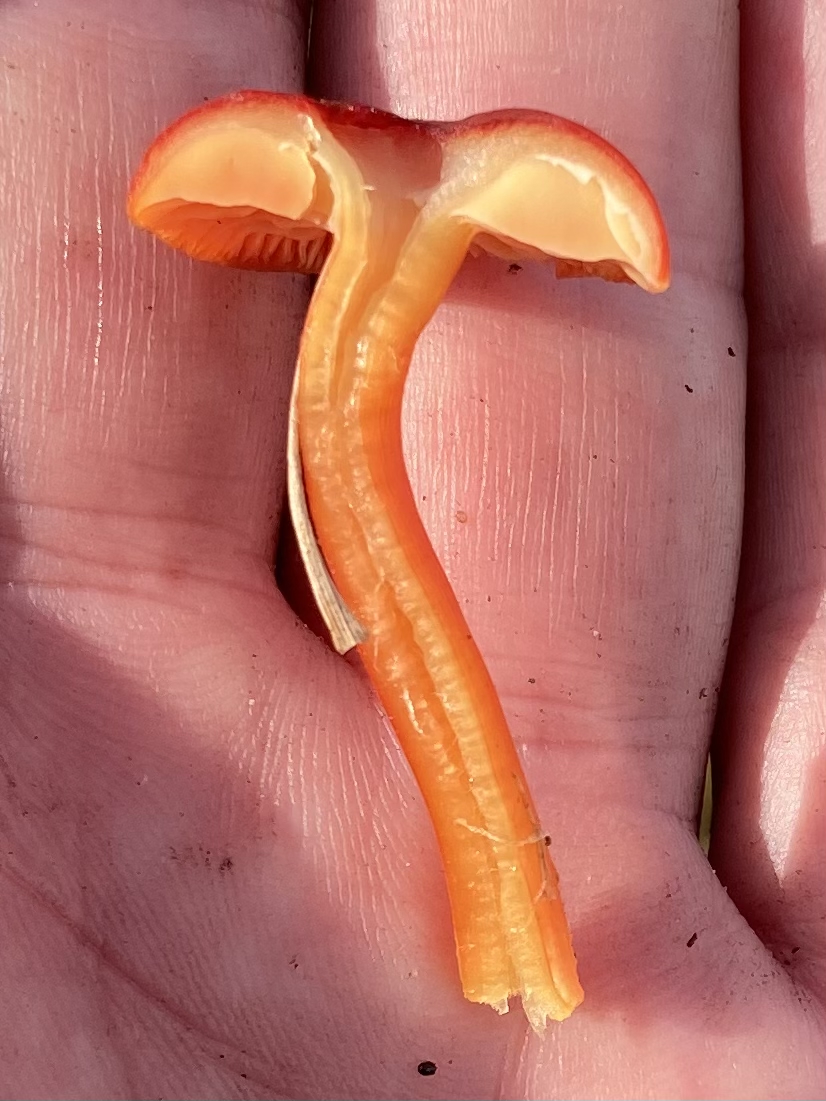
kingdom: Fungi
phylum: Basidiomycota
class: Agaricomycetes
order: Agaricales
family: Hygrophoraceae
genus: Hygrocybe
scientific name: Hygrocybe
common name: vokshat
